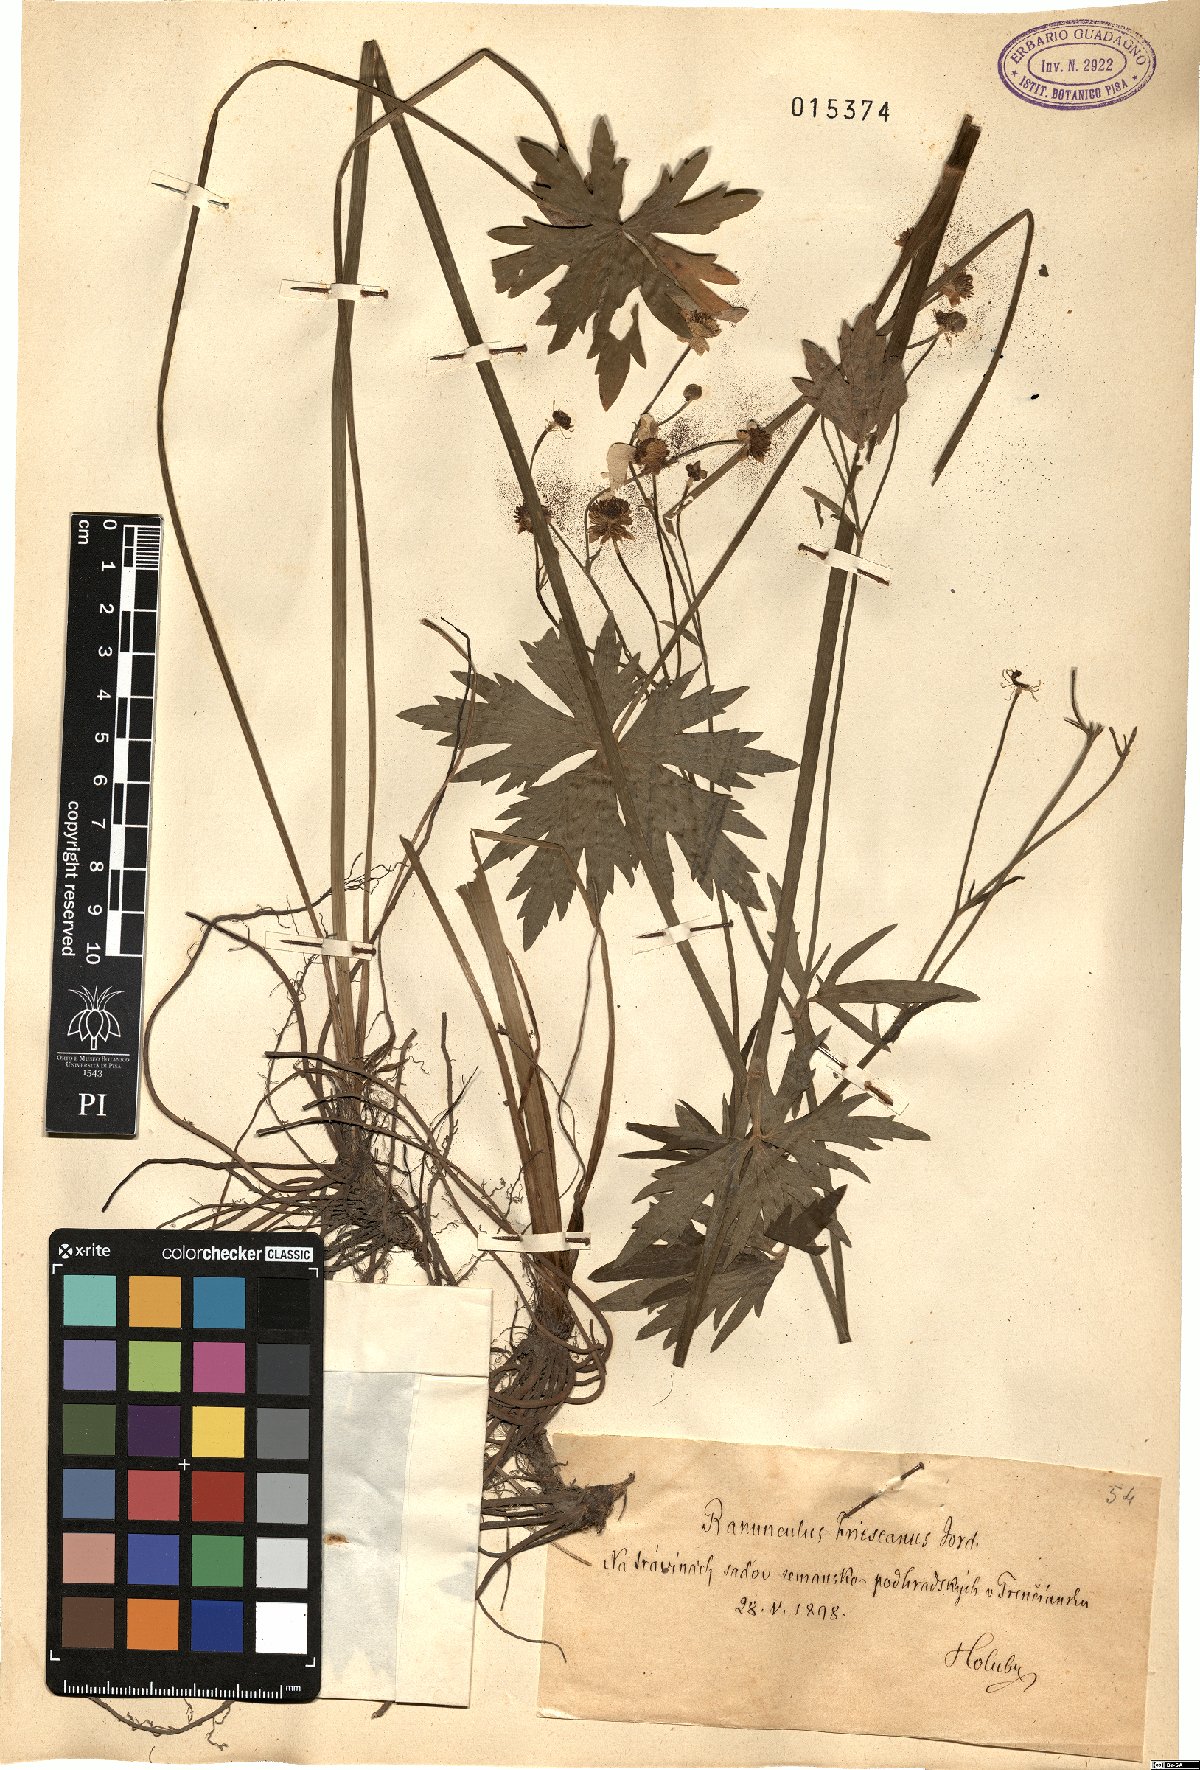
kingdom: Plantae
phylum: Tracheophyta
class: Magnoliopsida
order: Ranunculales
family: Ranunculaceae
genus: Ranunculus
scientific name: Ranunculus acris
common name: Meadow buttercup
